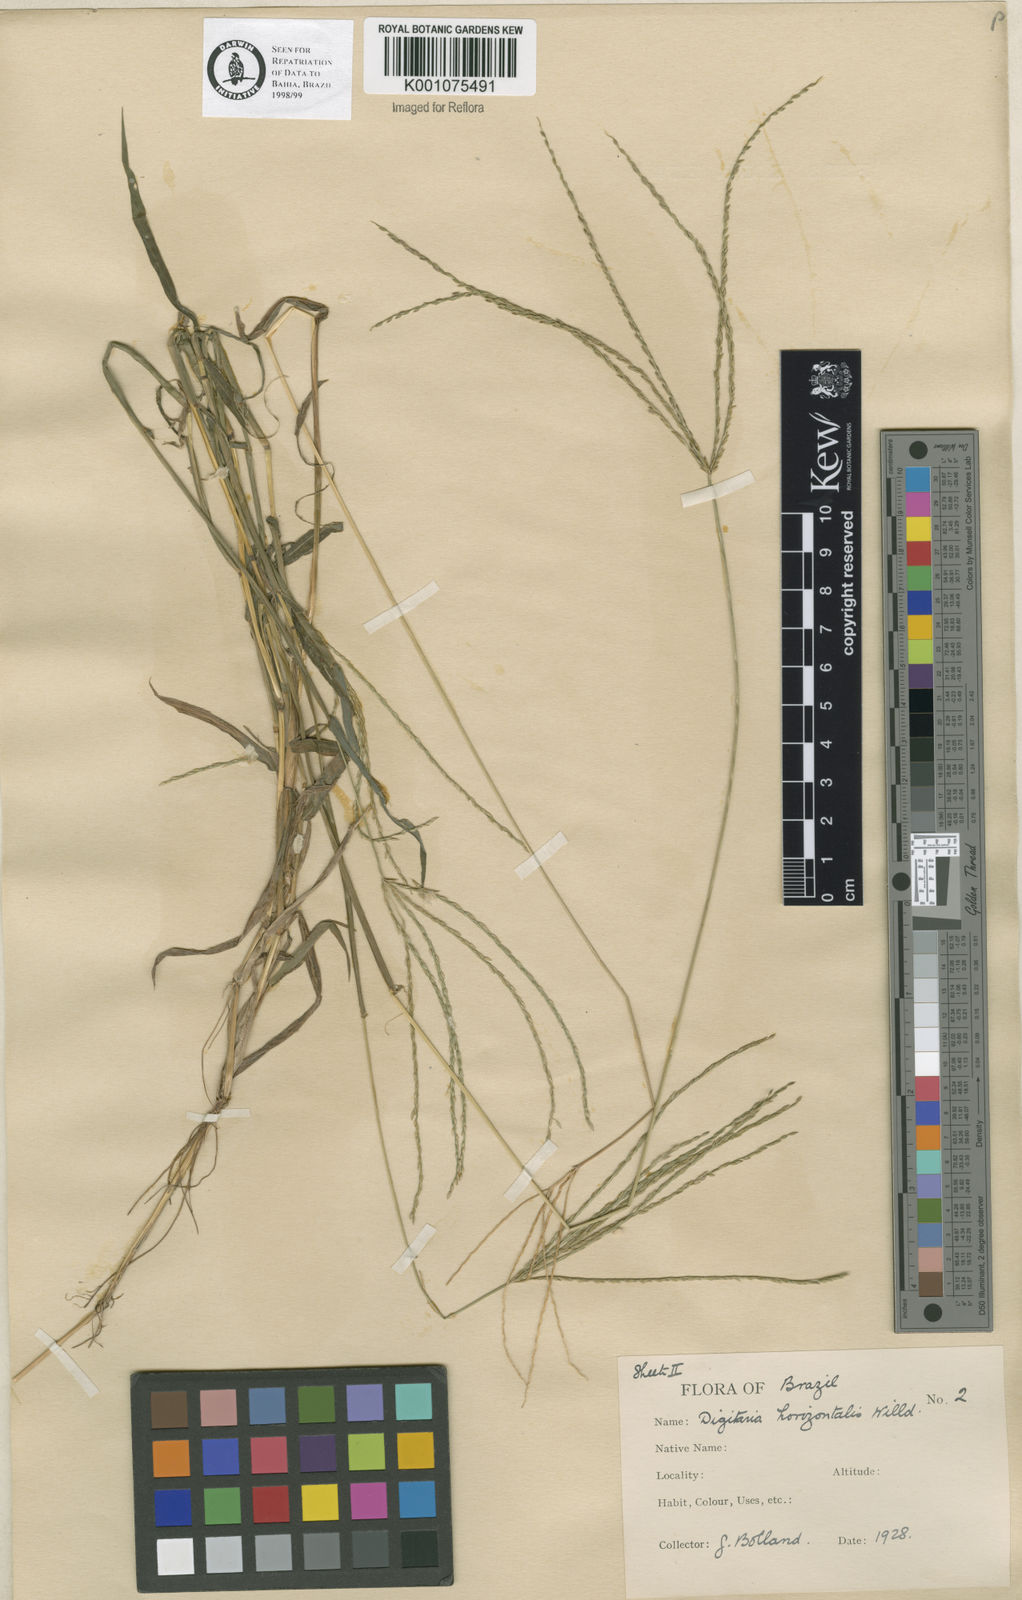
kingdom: Plantae
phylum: Tracheophyta
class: Liliopsida
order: Poales
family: Poaceae
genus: Digitaria
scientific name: Digitaria nuda
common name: Naked crabgrass
